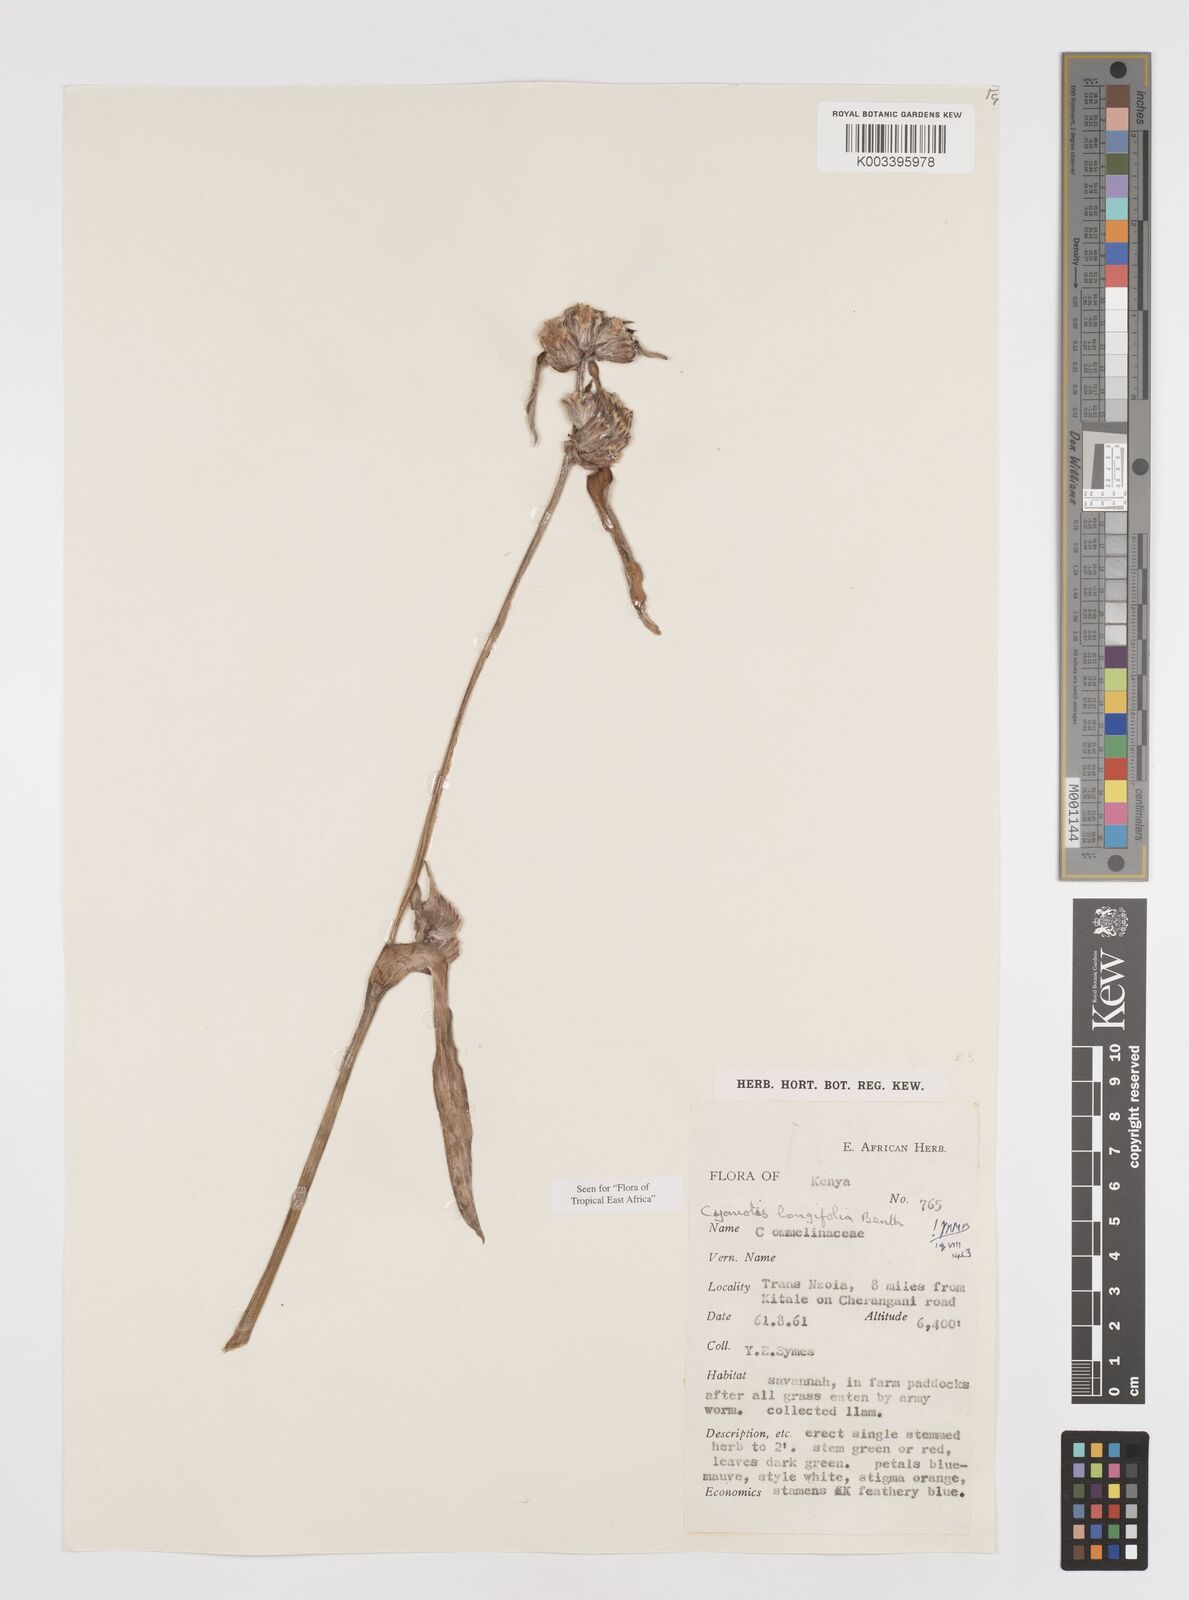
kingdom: Plantae
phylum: Tracheophyta
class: Liliopsida
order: Commelinales
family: Commelinaceae
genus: Cyanotis
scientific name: Cyanotis longifolia
